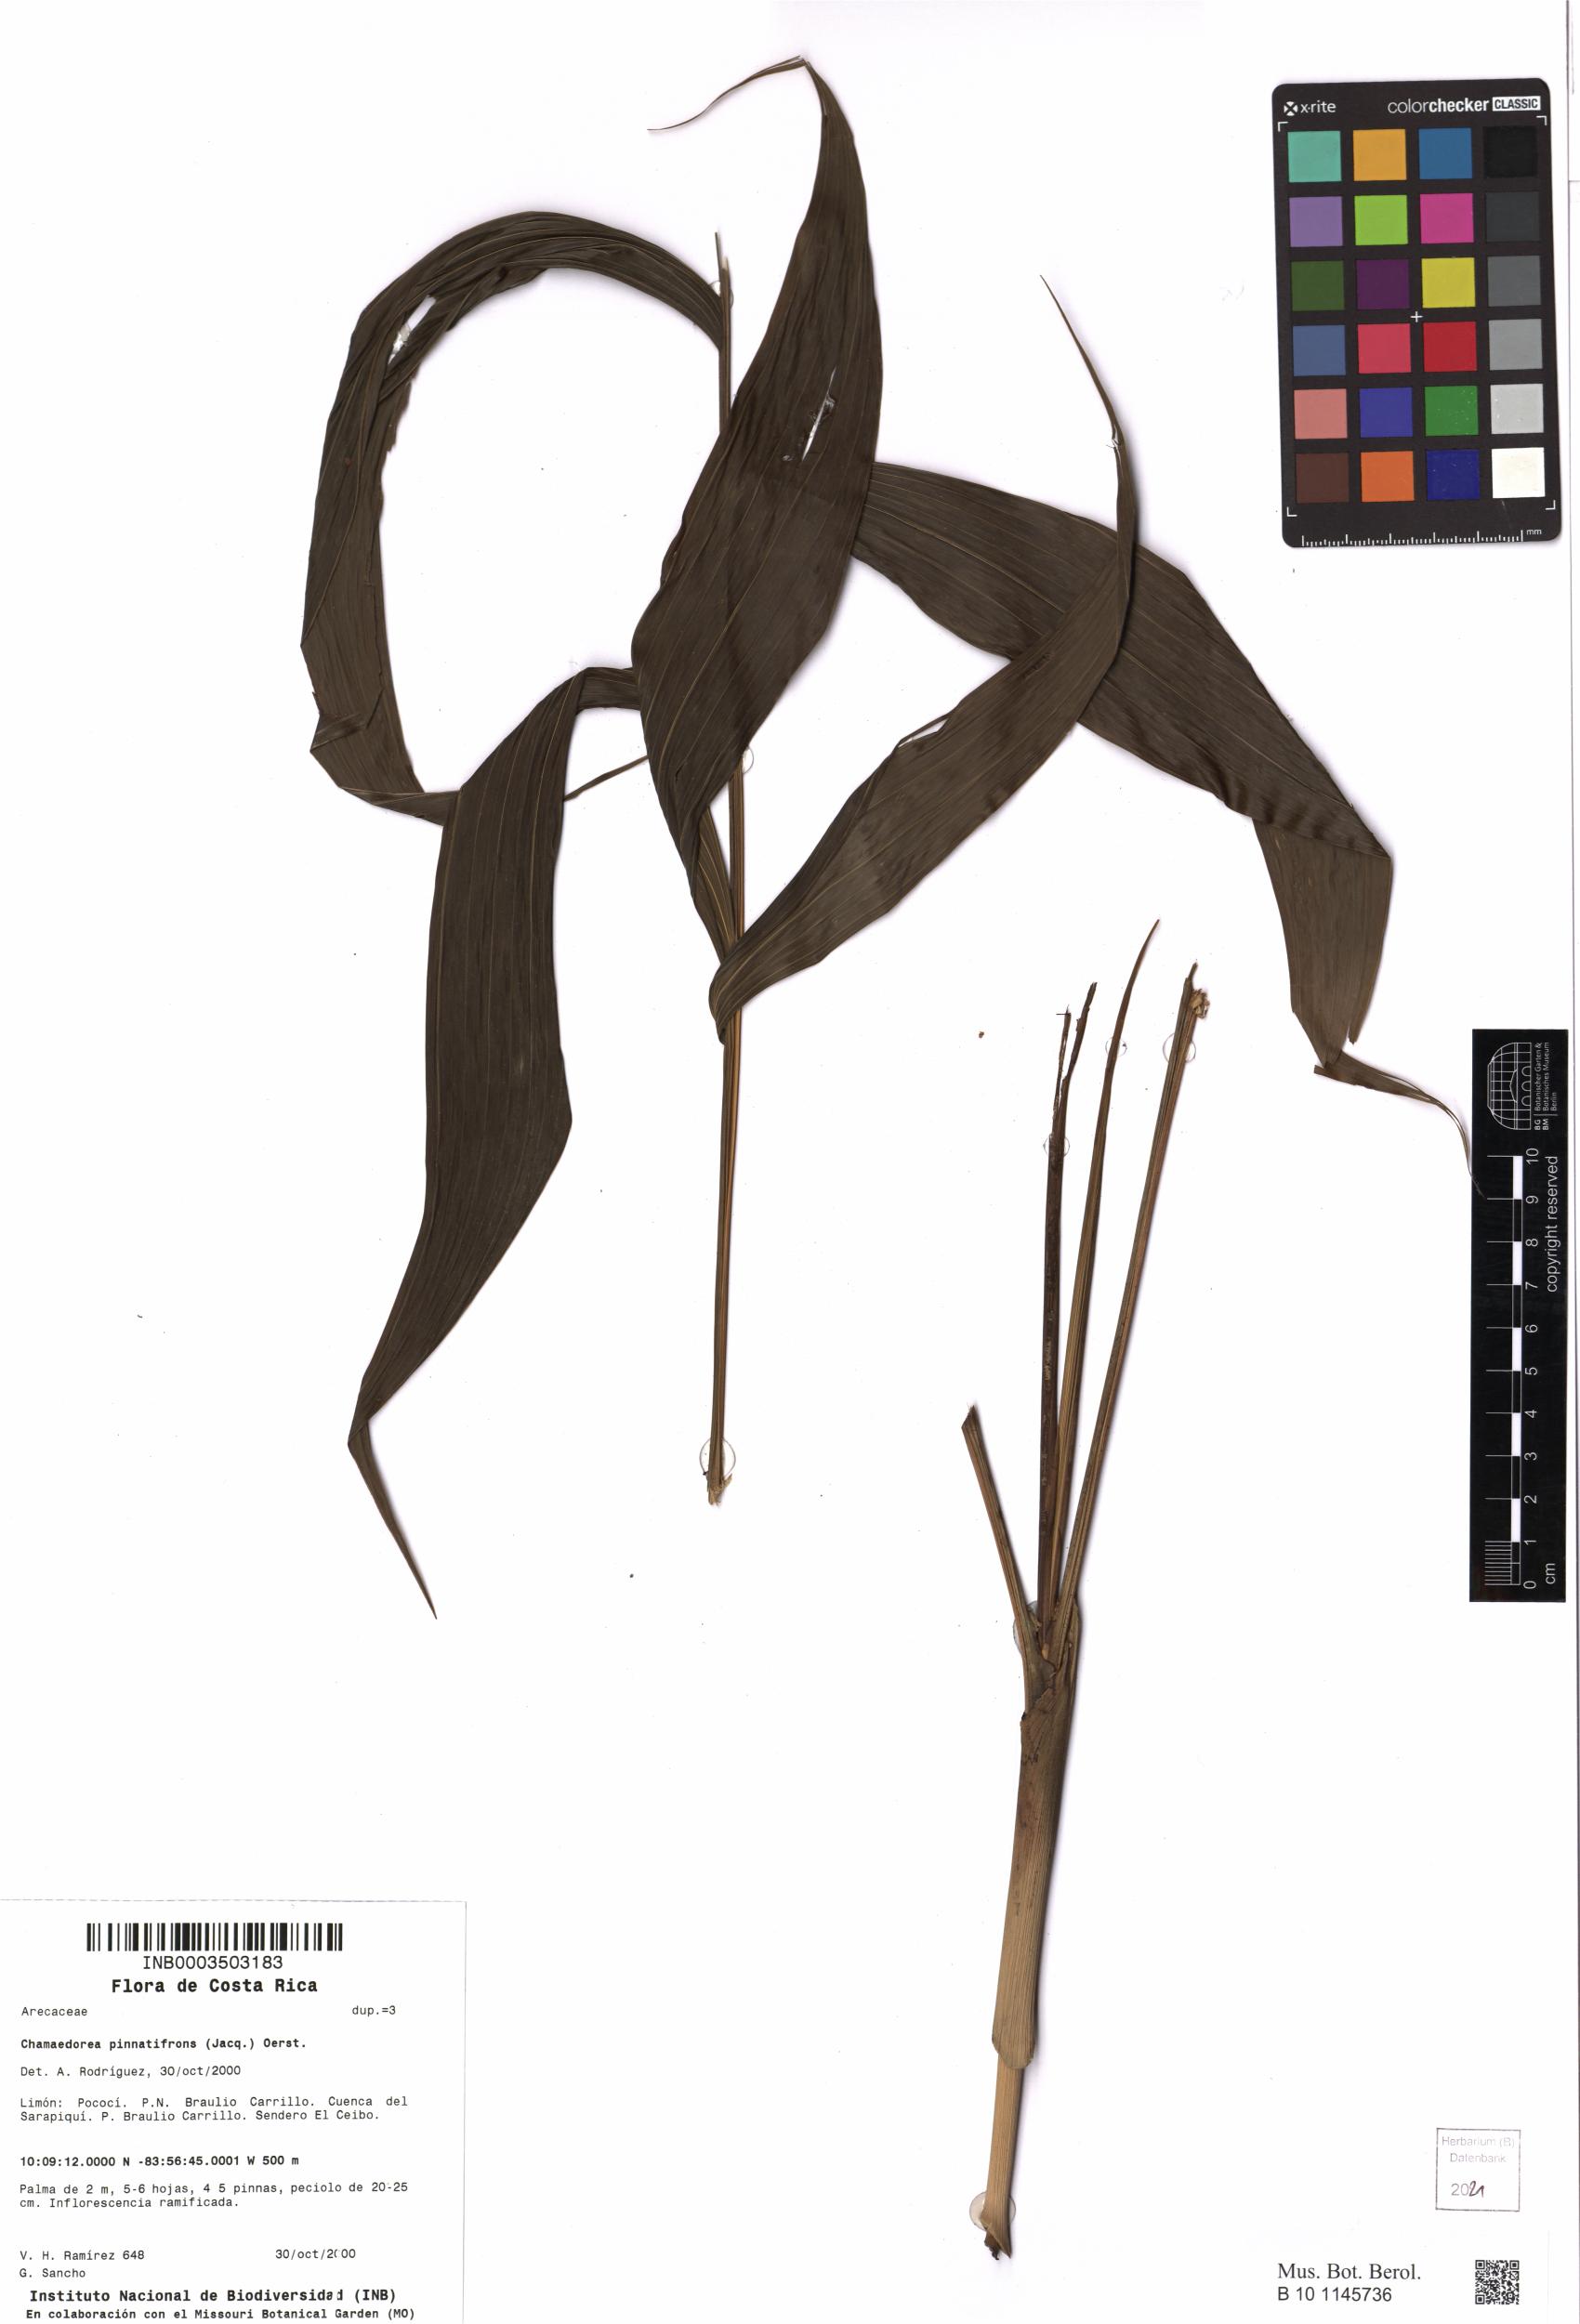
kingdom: Plantae
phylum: Tracheophyta
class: Liliopsida
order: Arecales
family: Arecaceae
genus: Chamaedorea
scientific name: Chamaedorea pinnatifrons
